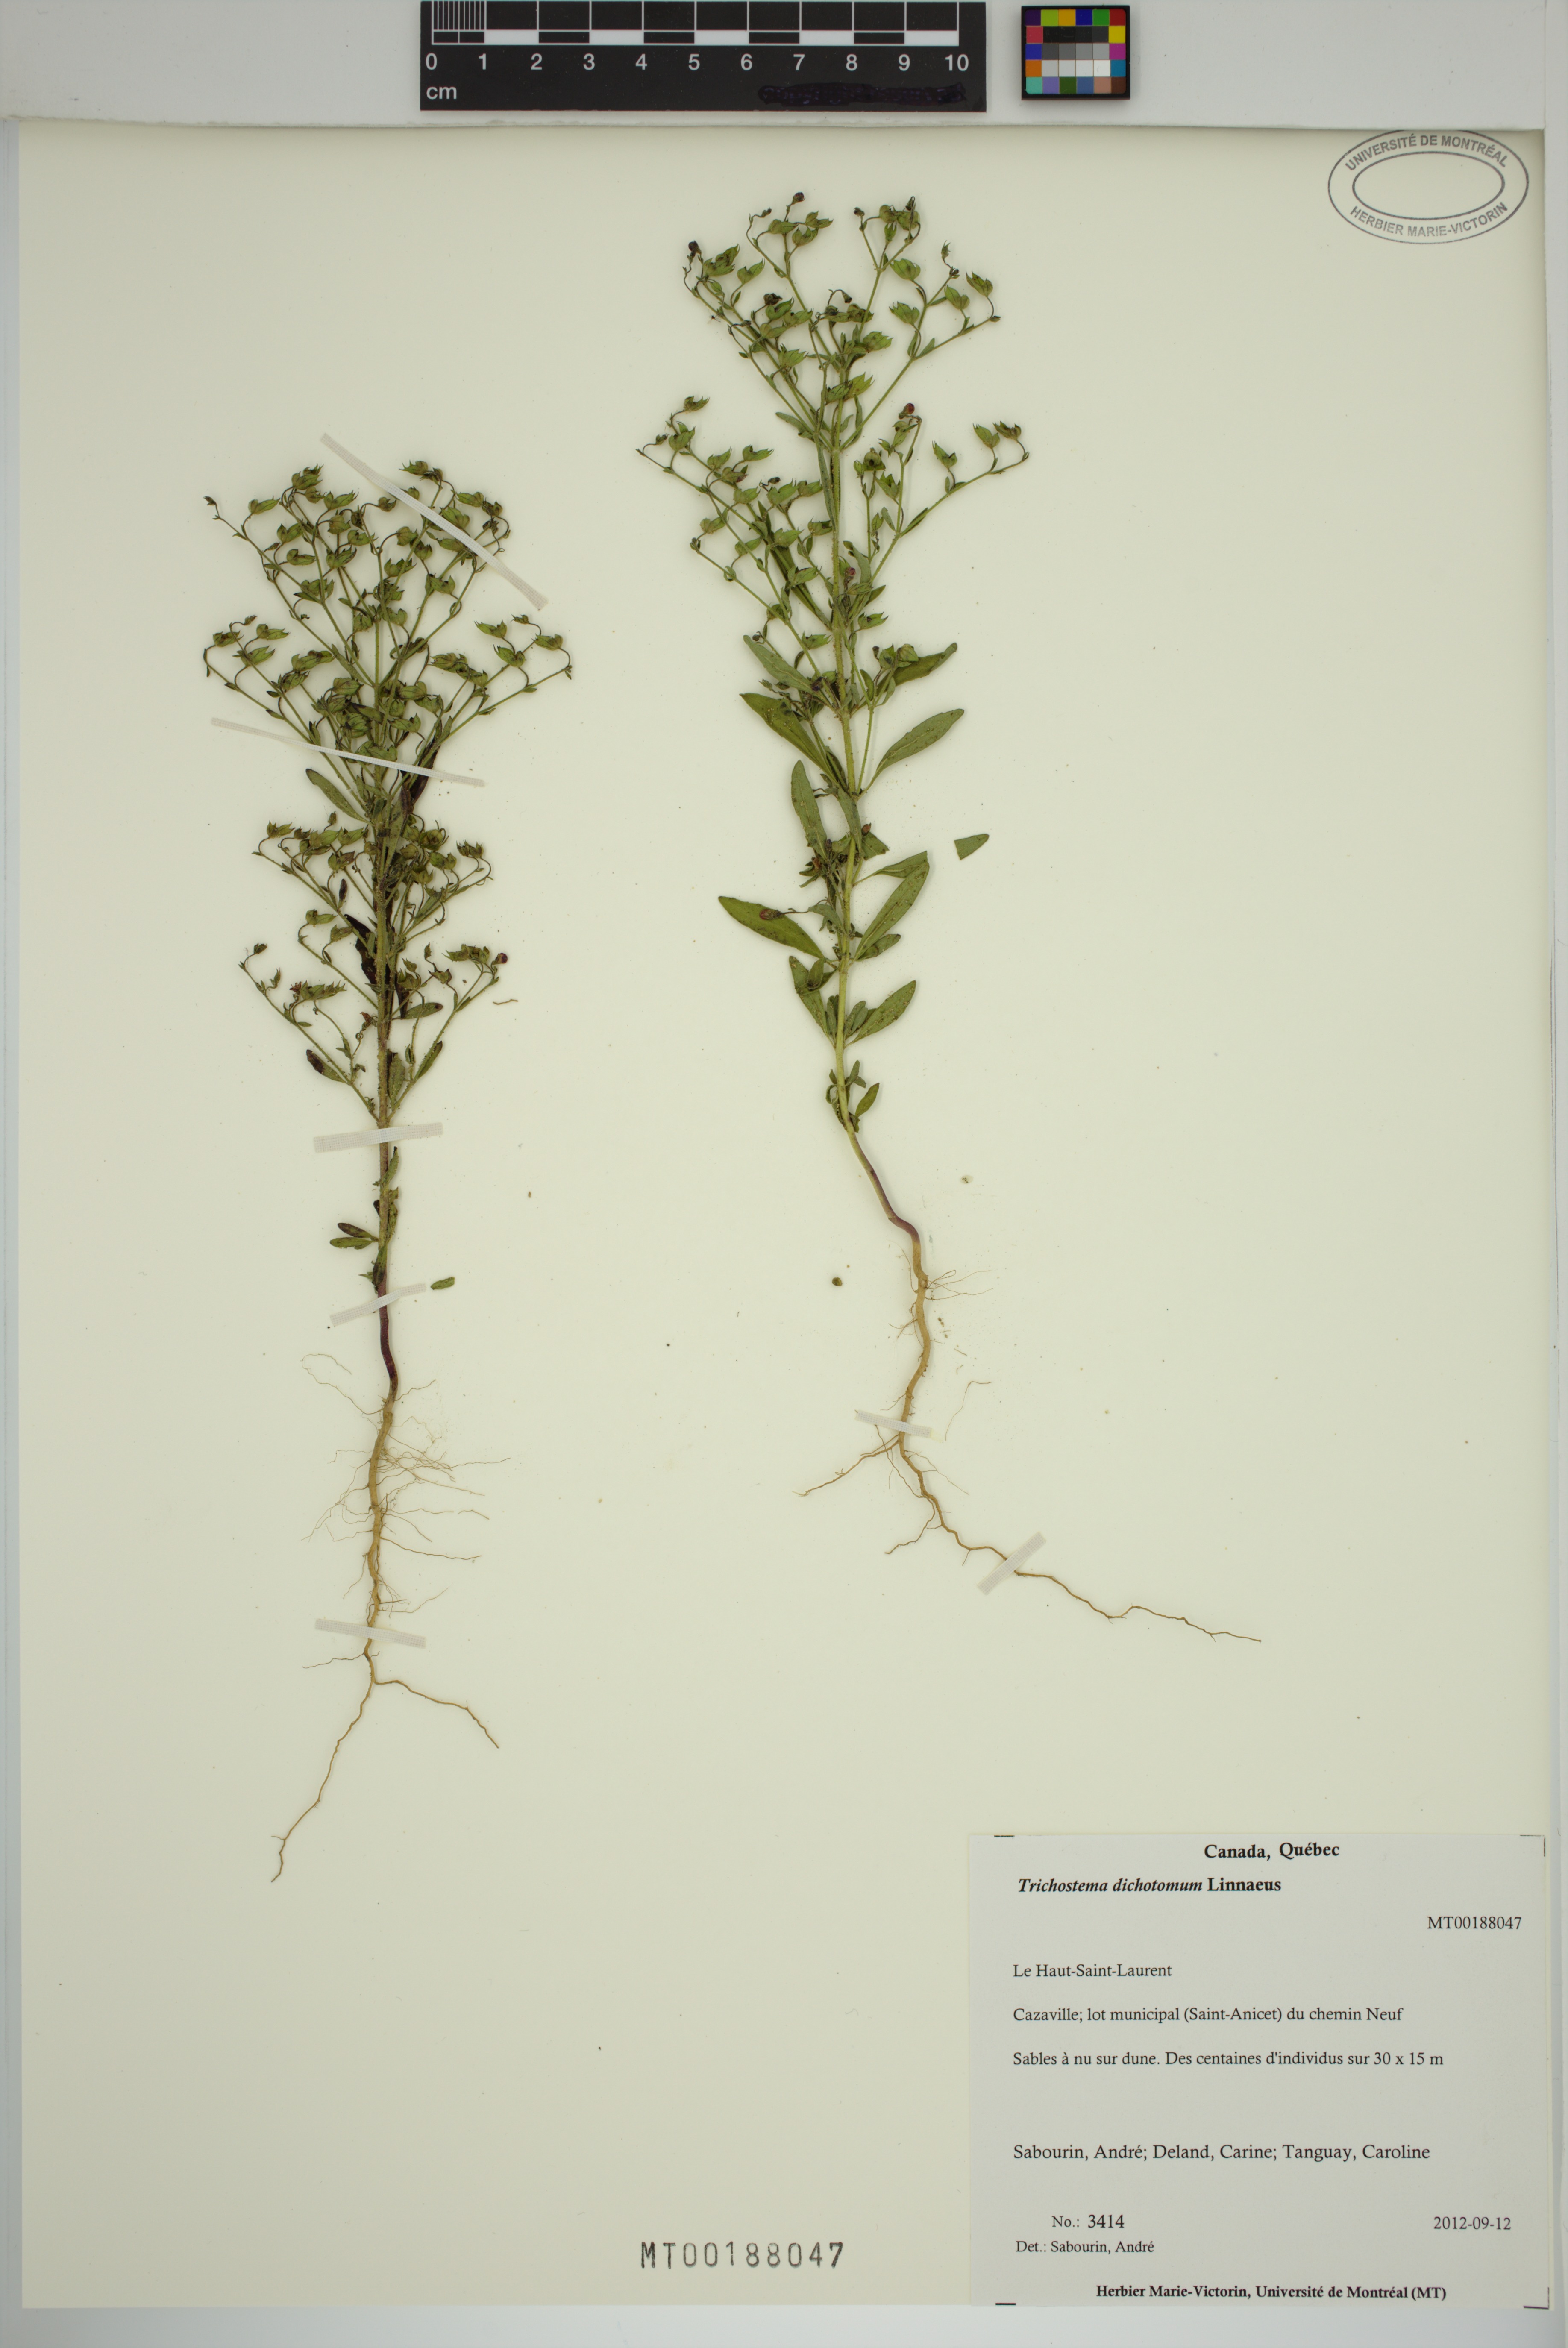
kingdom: Plantae
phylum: Tracheophyta
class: Magnoliopsida
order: Lamiales
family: Lamiaceae
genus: Trichostema
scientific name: Trichostema dichotomum
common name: Bastard pennyroyal
